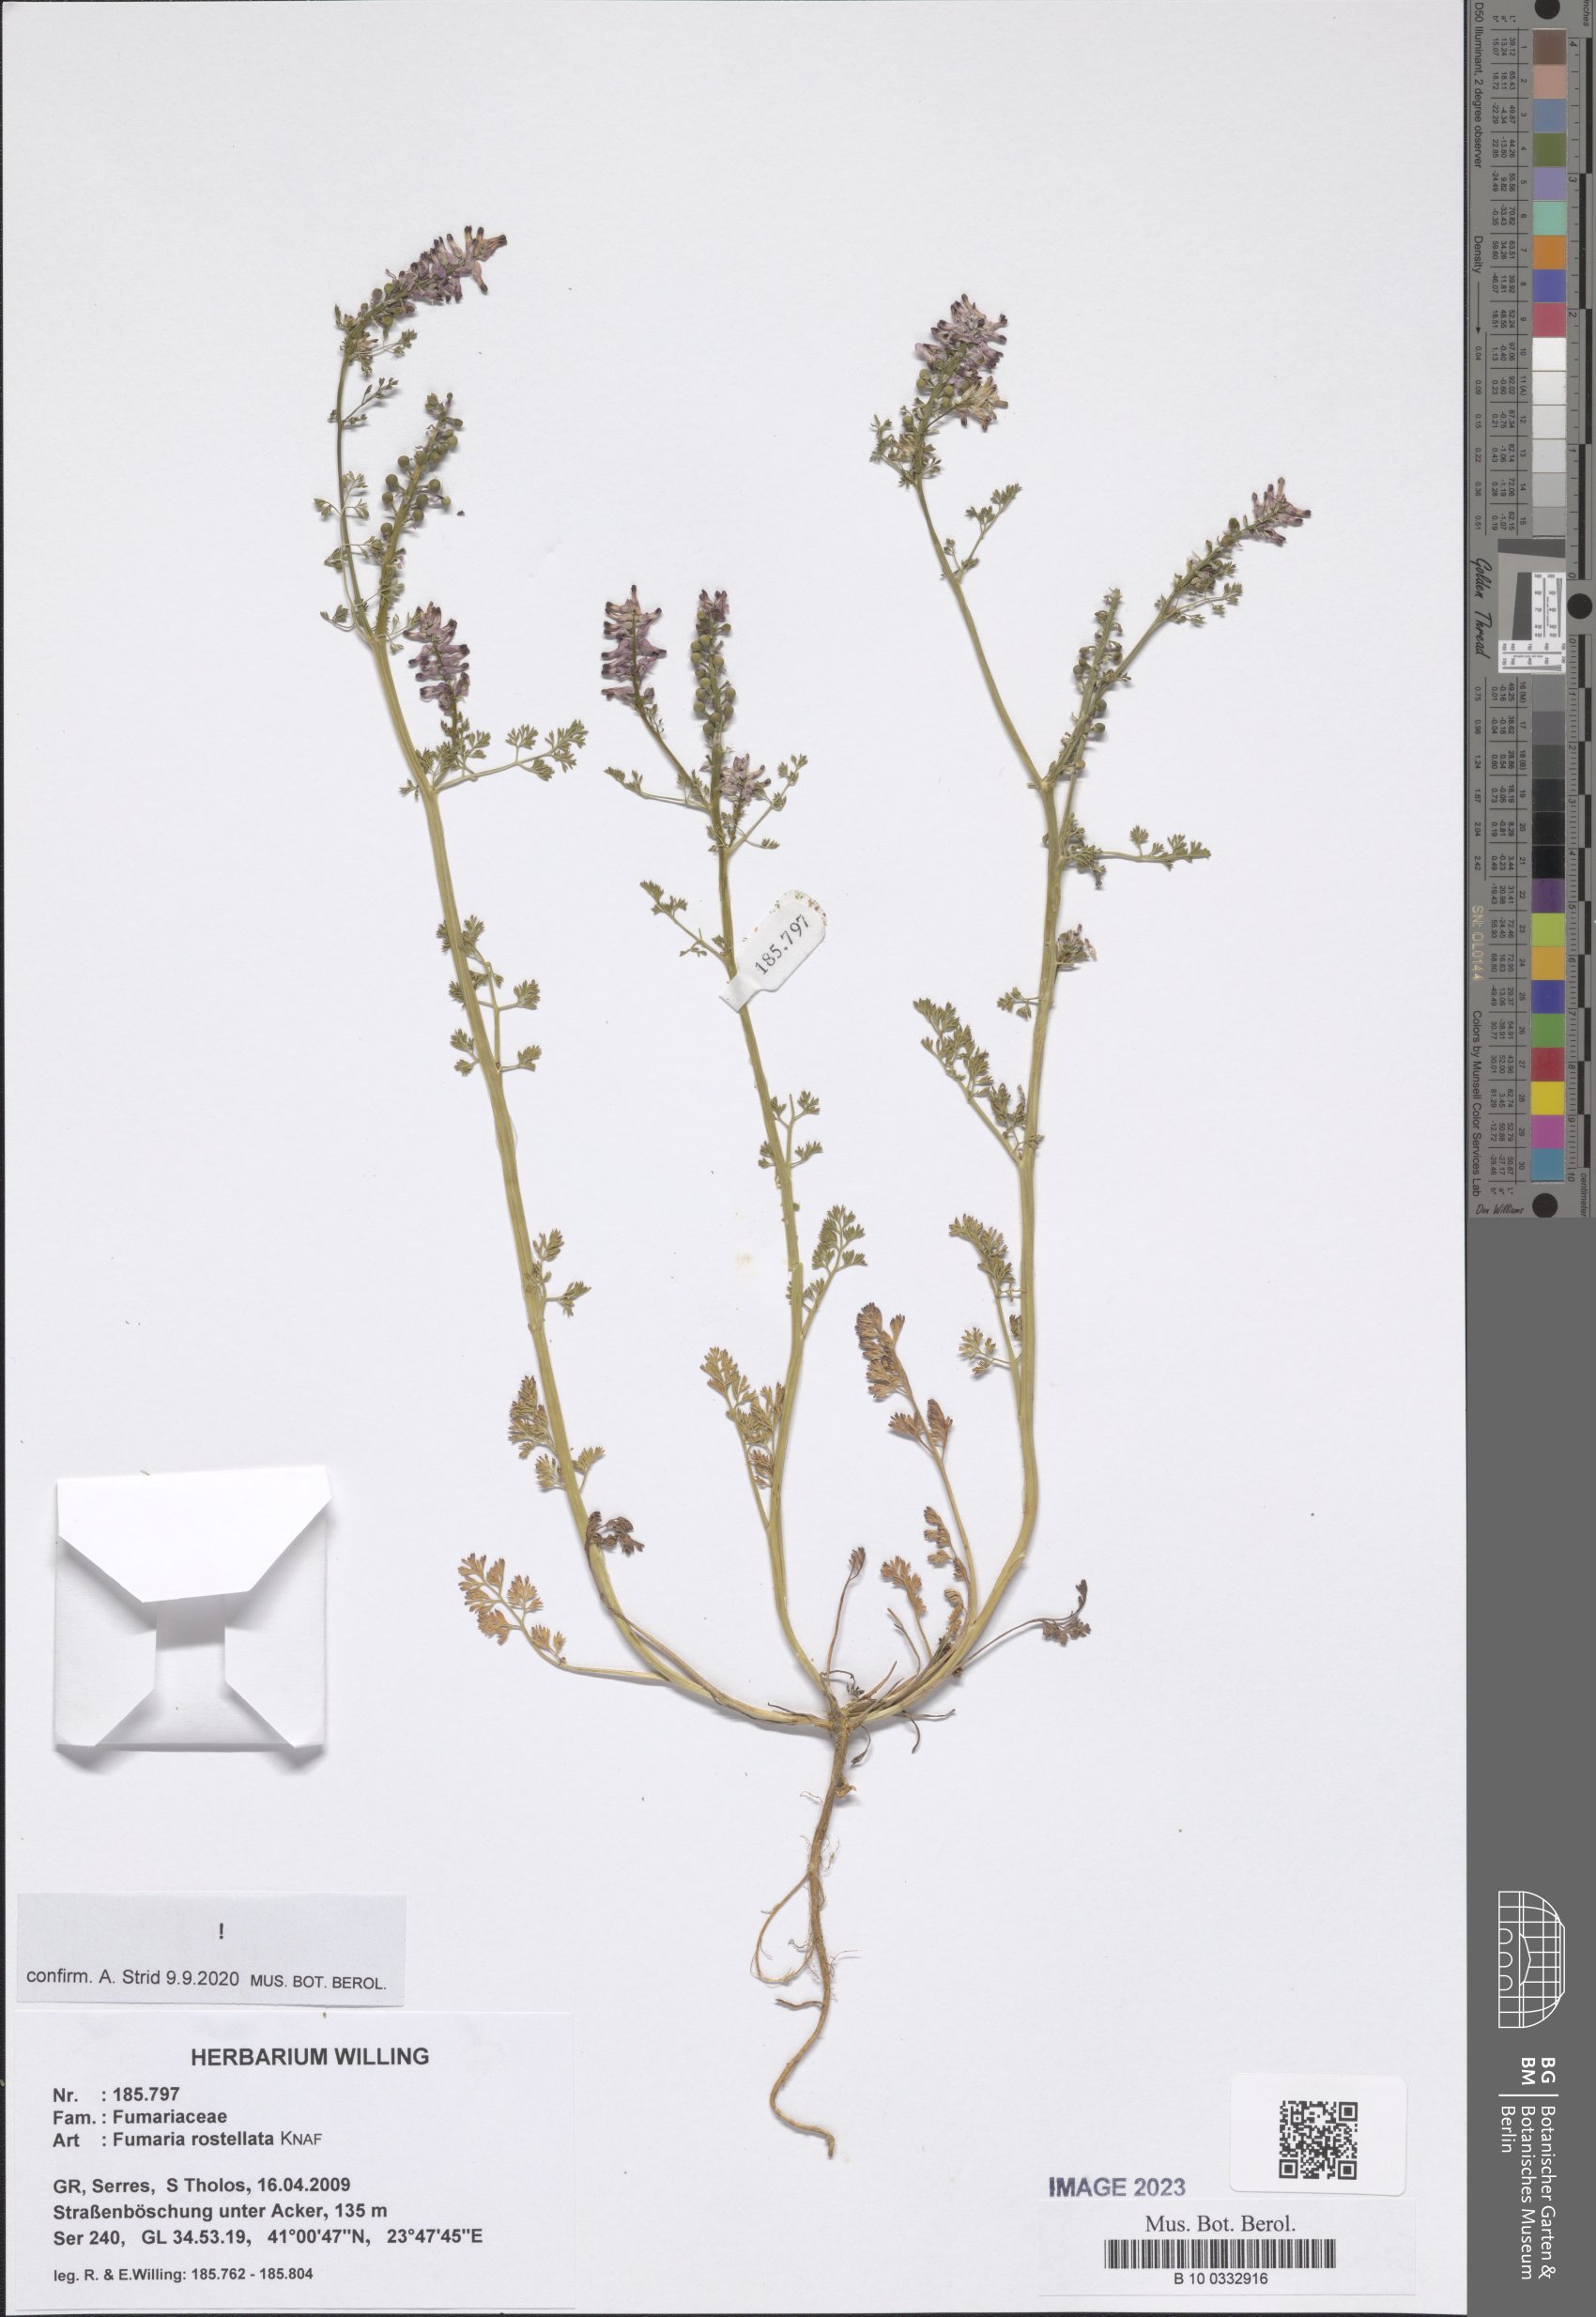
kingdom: Plantae
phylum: Tracheophyta
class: Magnoliopsida
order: Ranunculales
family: Papaveraceae
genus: Fumaria
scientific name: Fumaria rostellata
